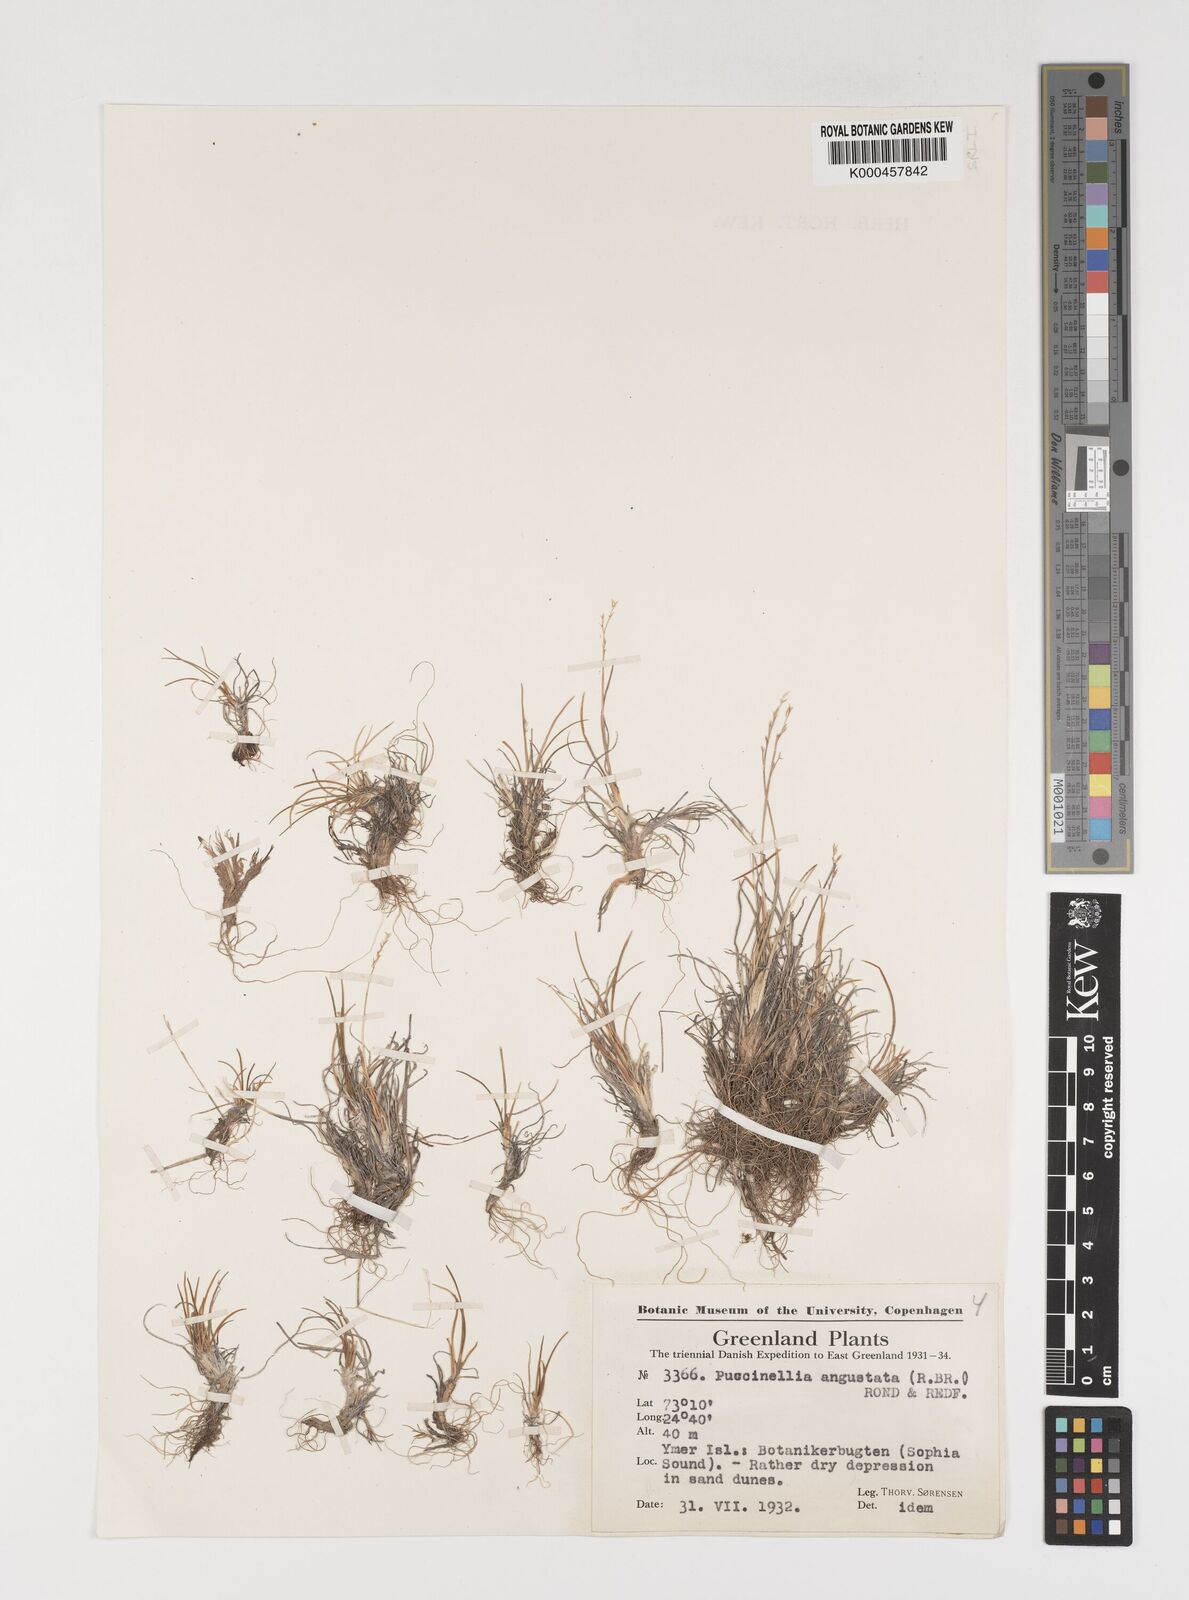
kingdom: Plantae
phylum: Tracheophyta
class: Liliopsida
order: Poales
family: Poaceae
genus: Puccinellia
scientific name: Puccinellia angustata
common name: Narrow alkaligrass
